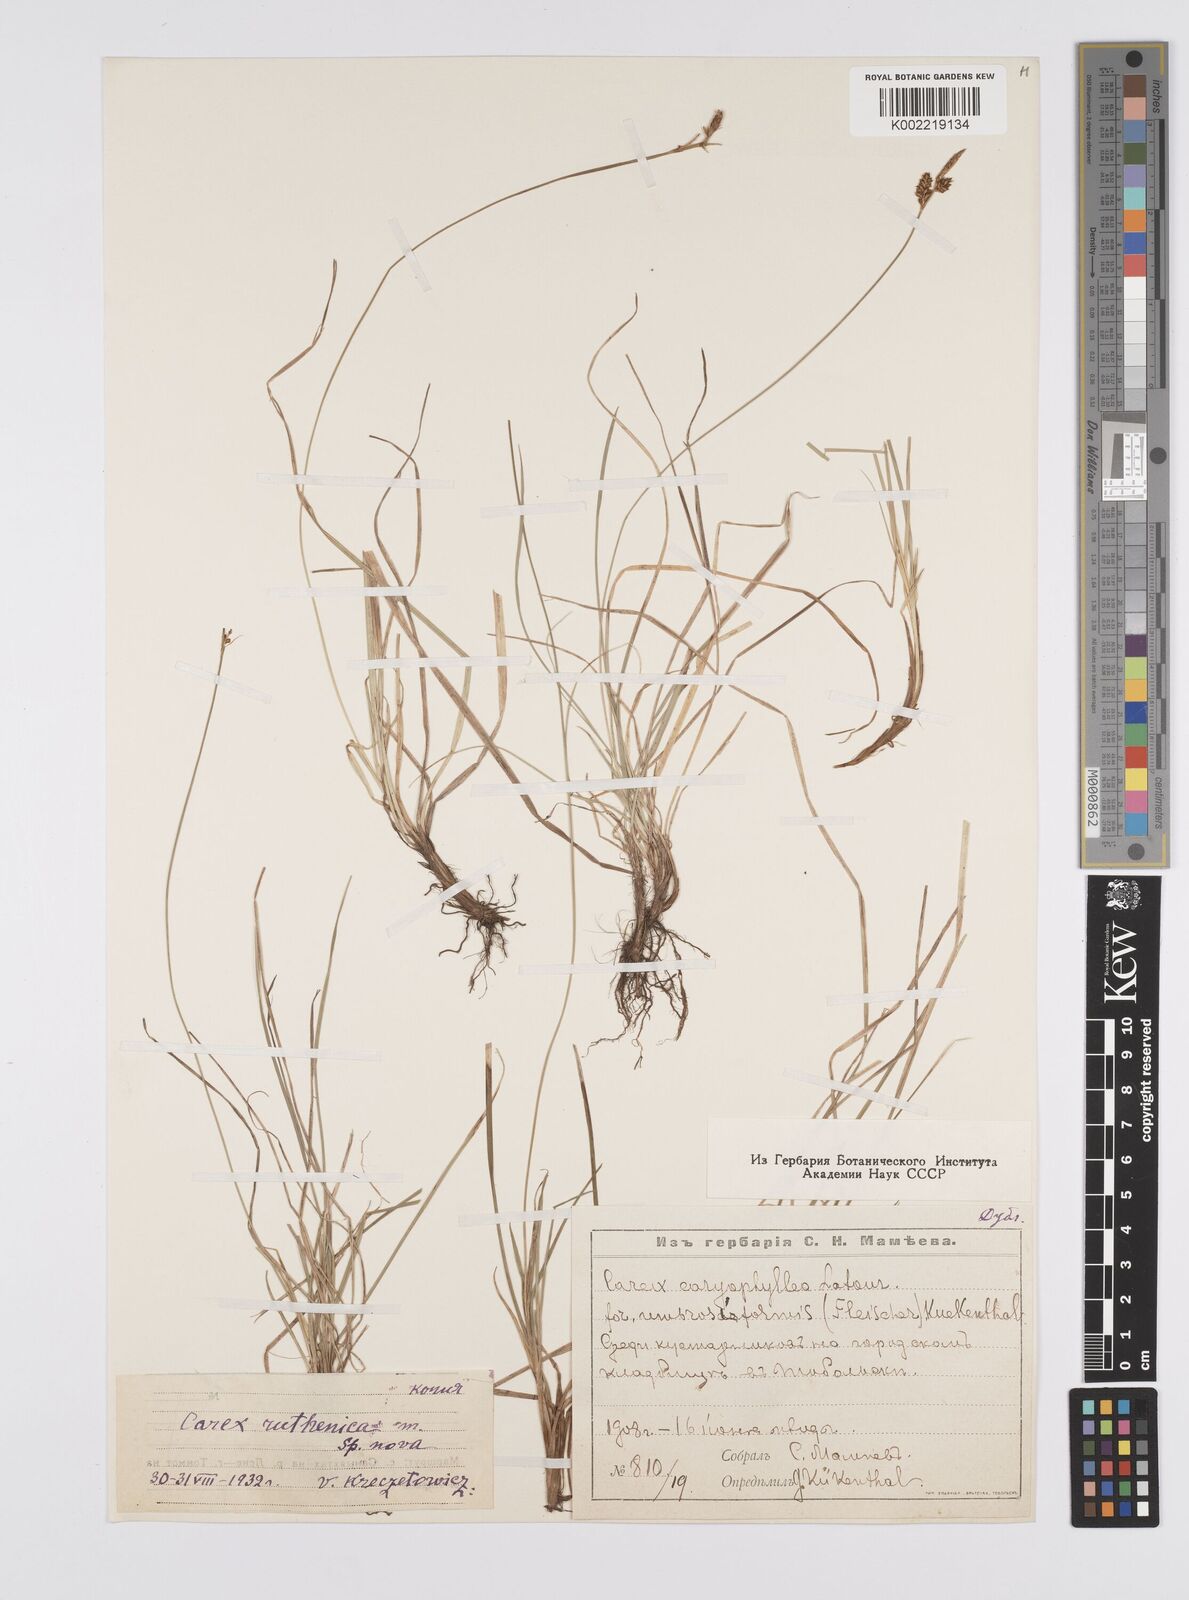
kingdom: Plantae
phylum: Tracheophyta
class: Liliopsida
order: Poales
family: Cyperaceae
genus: Carex
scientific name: Carex caryophyllea
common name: Spring sedge
